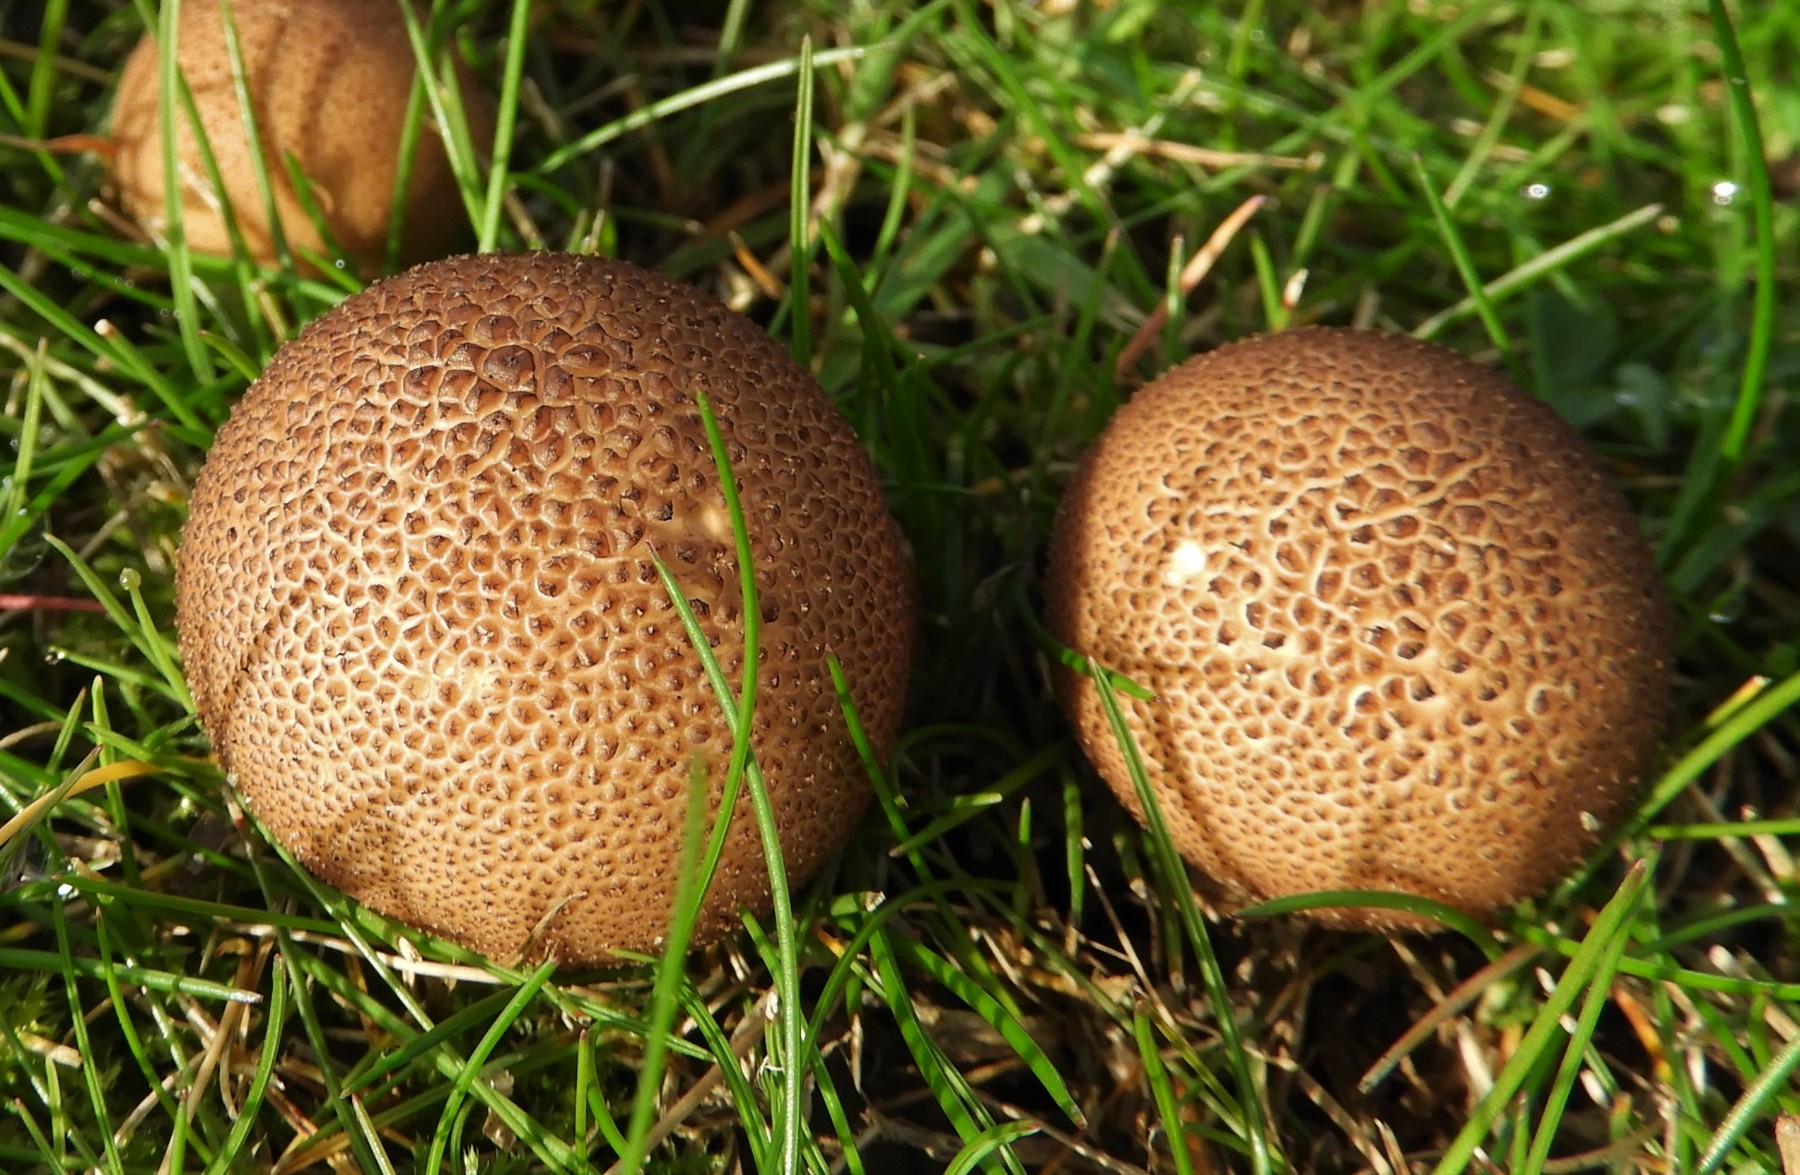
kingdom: Fungi
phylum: Basidiomycota
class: Agaricomycetes
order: Agaricales
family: Lycoperdaceae
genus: Apioperdon
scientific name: Apioperdon pyriforme
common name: pære-støvbold
